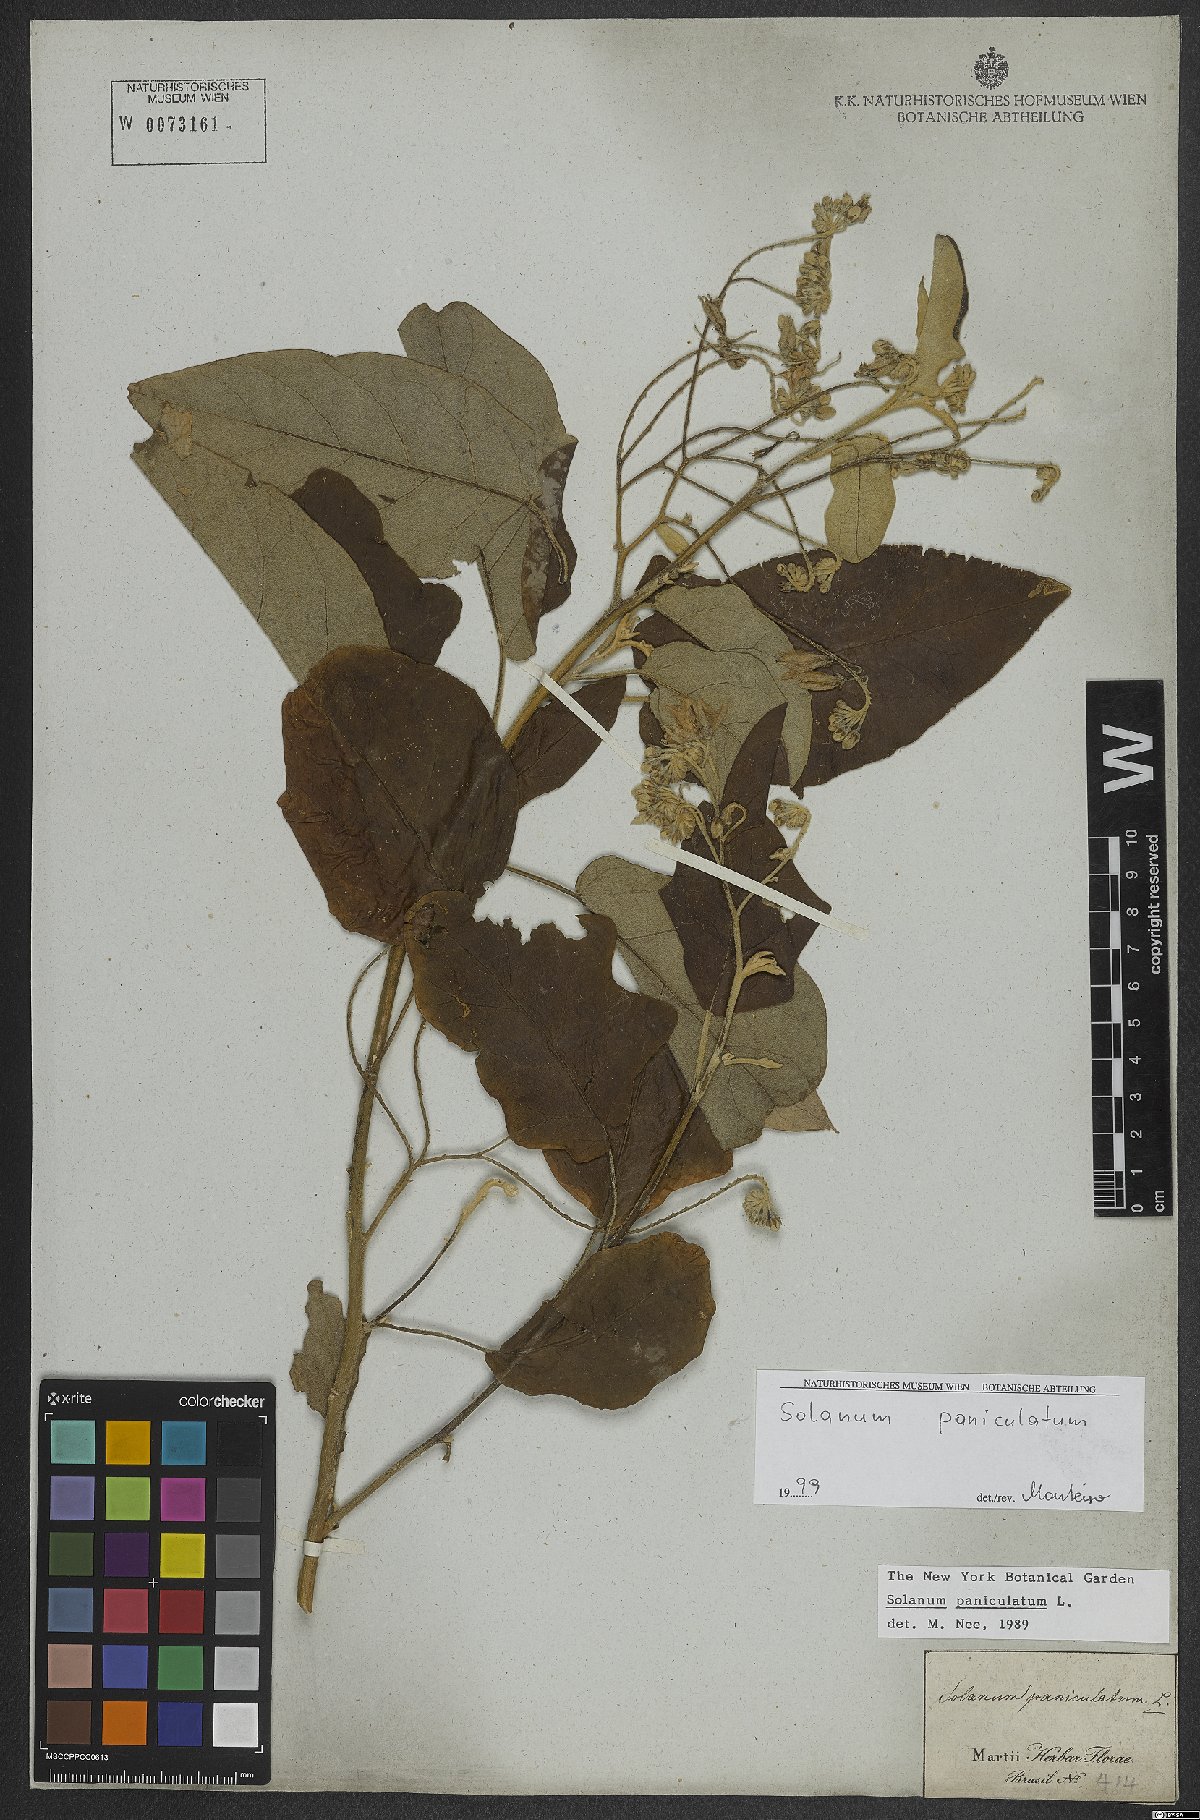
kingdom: Plantae
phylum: Tracheophyta
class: Magnoliopsida
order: Solanales
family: Solanaceae
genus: Solanum
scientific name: Solanum paniculatum
